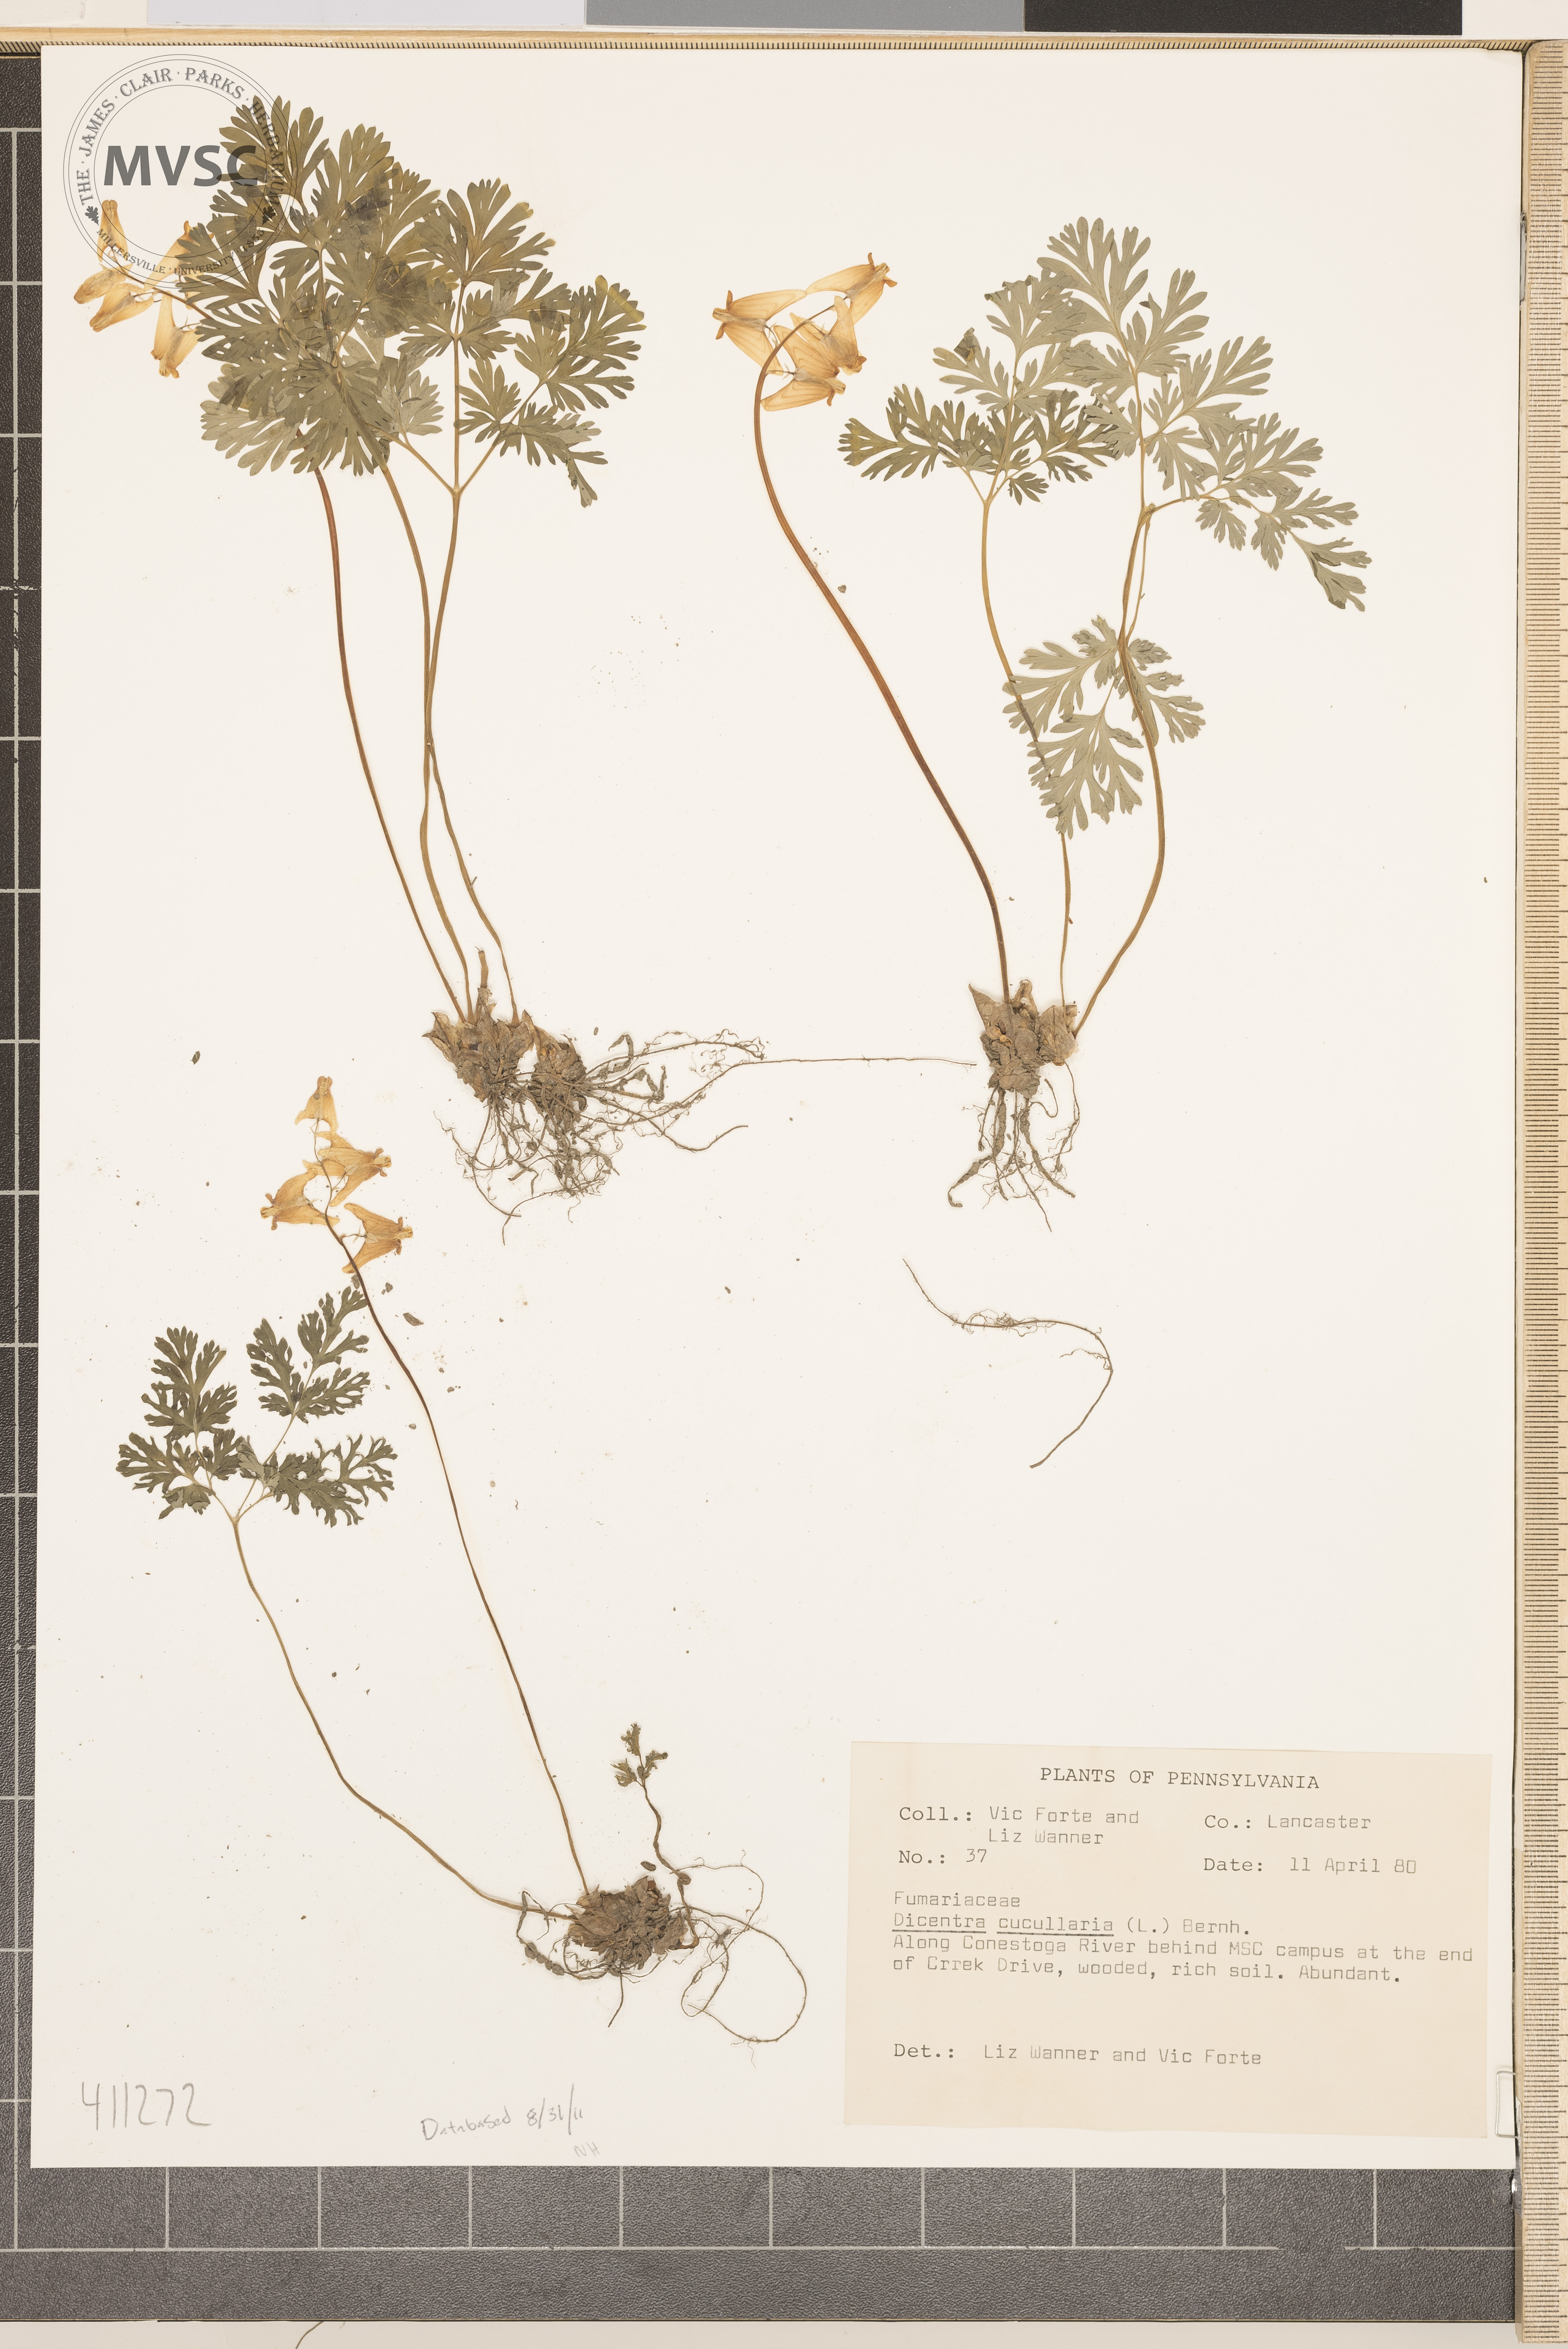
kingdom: Plantae
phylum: Tracheophyta
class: Magnoliopsida
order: Ranunculales
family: Papaveraceae
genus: Dicentra
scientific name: Dicentra cucullaria
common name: Dutchman's breeches
